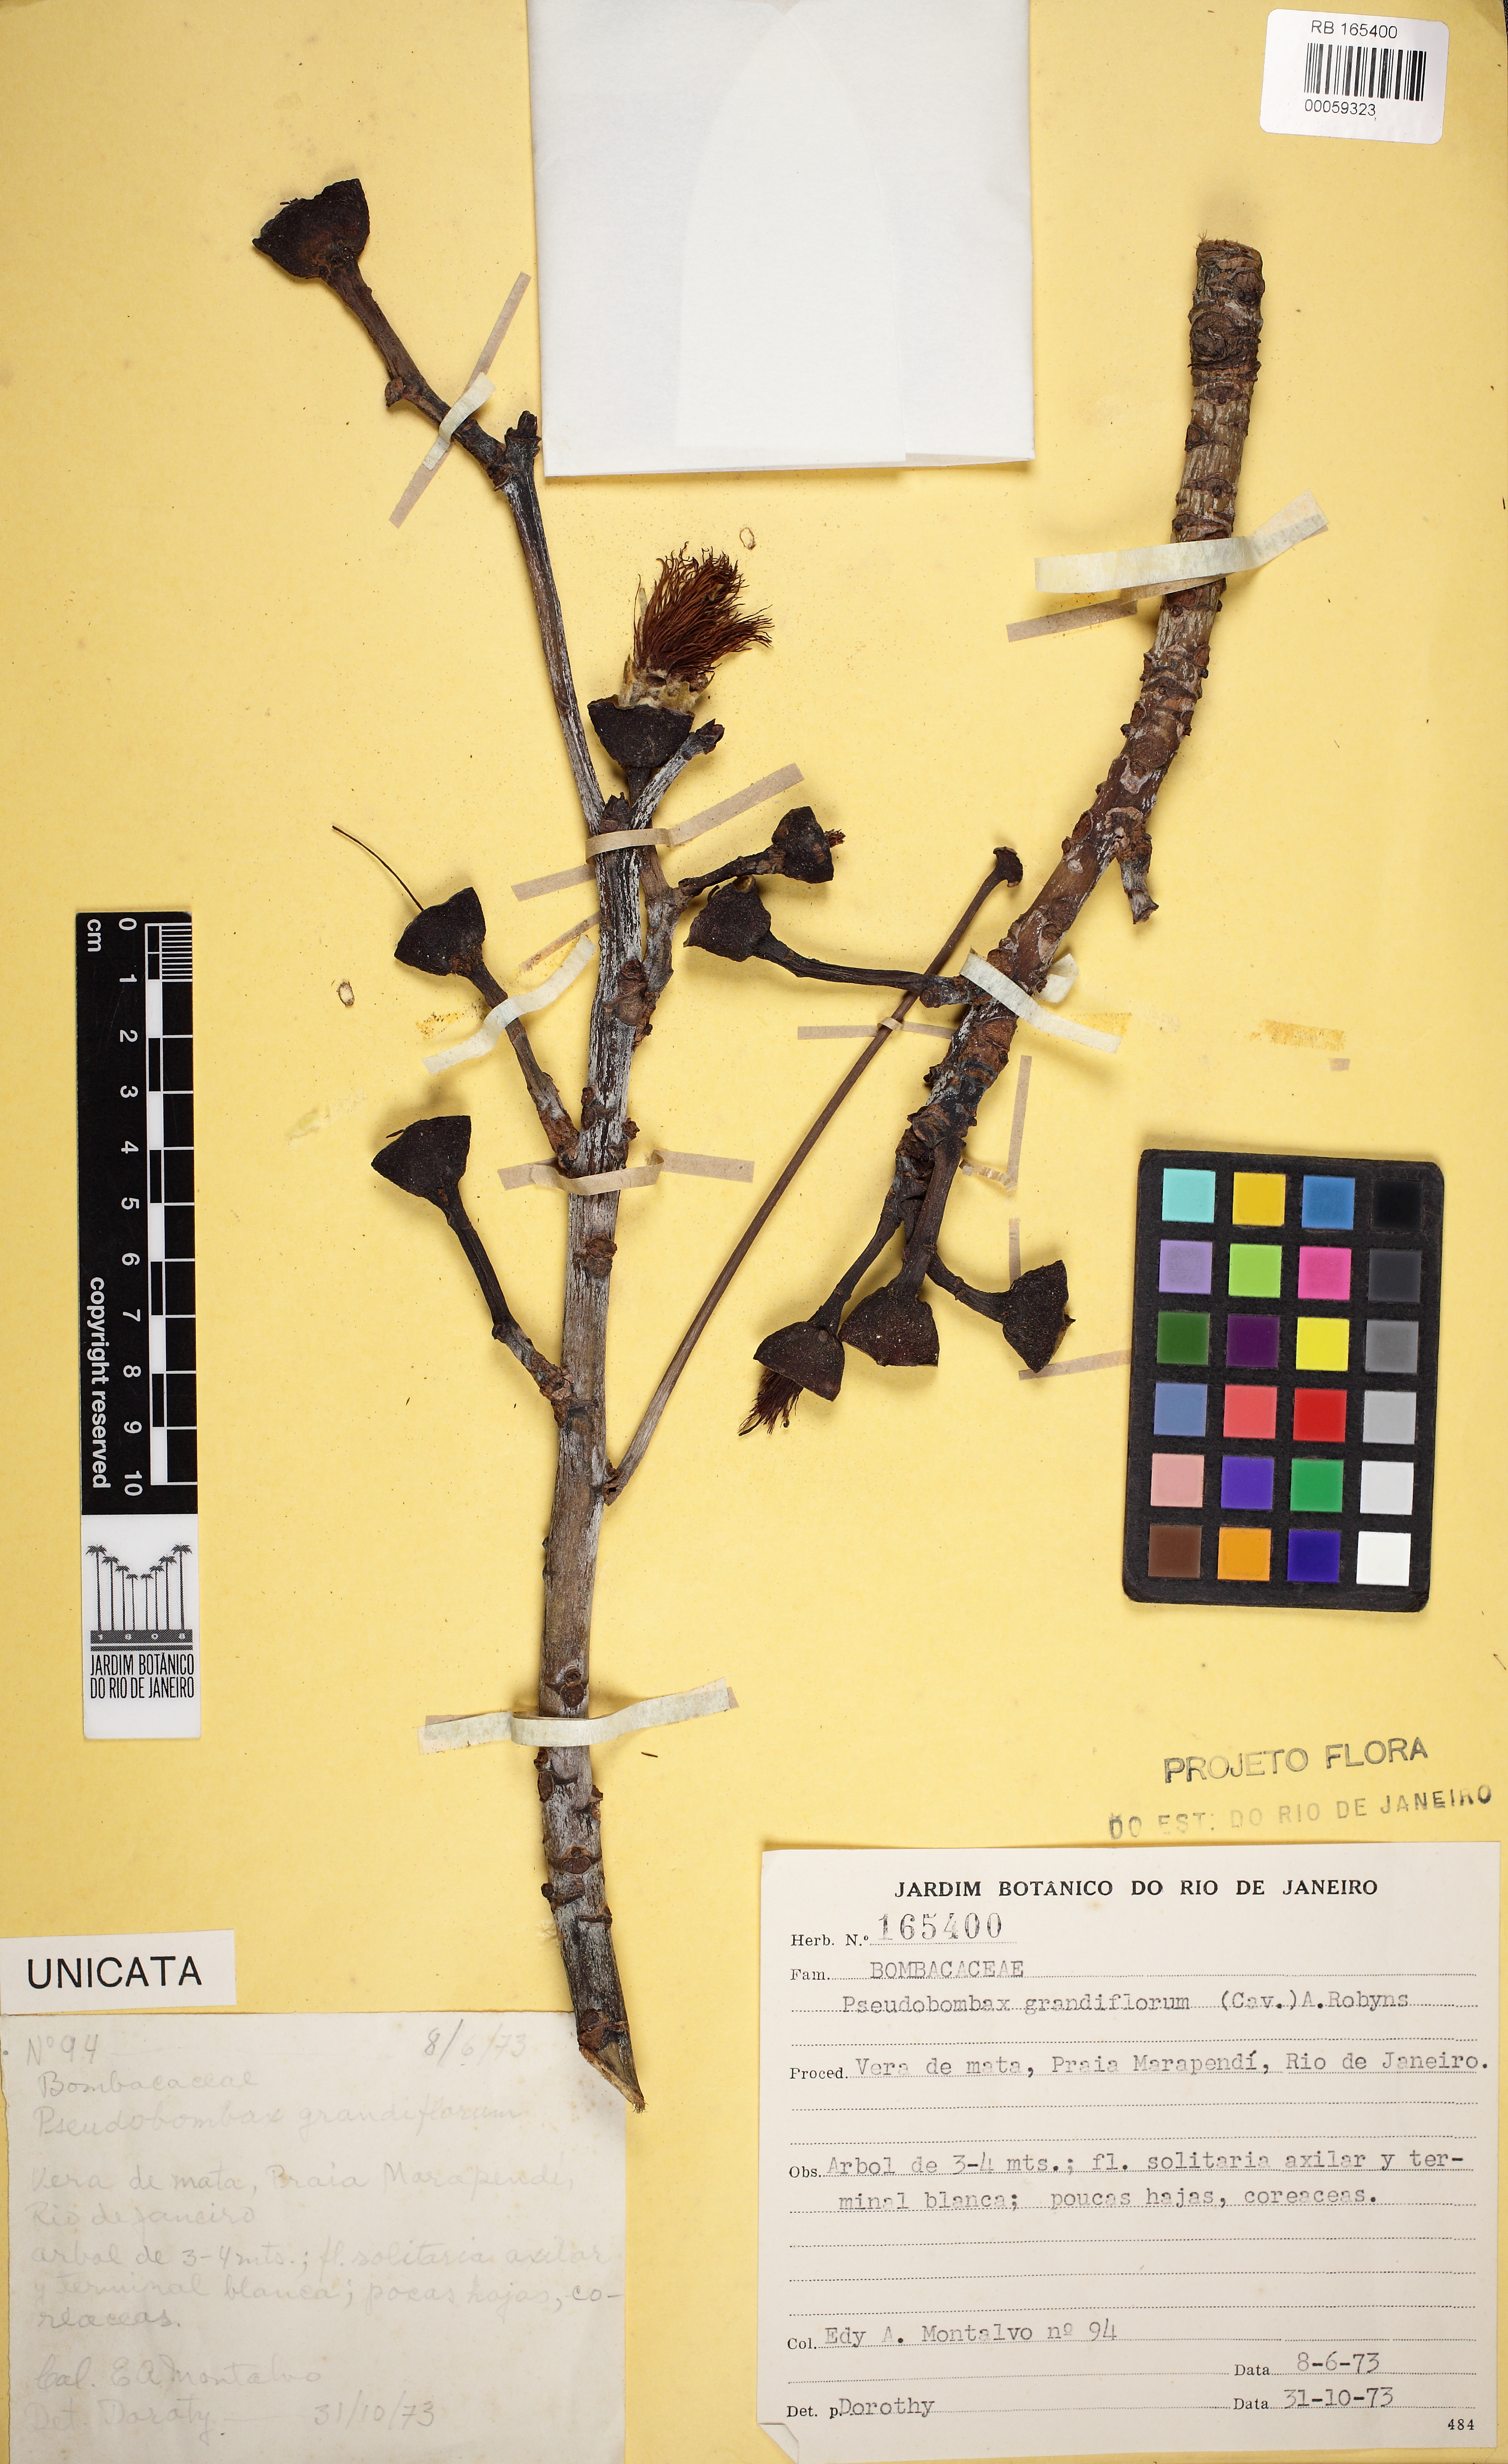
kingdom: Plantae
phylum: Tracheophyta
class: Magnoliopsida
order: Malvales
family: Malvaceae
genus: Pseudobombax
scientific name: Pseudobombax grandiflorum
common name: Brazilian shaving-brush-tree
